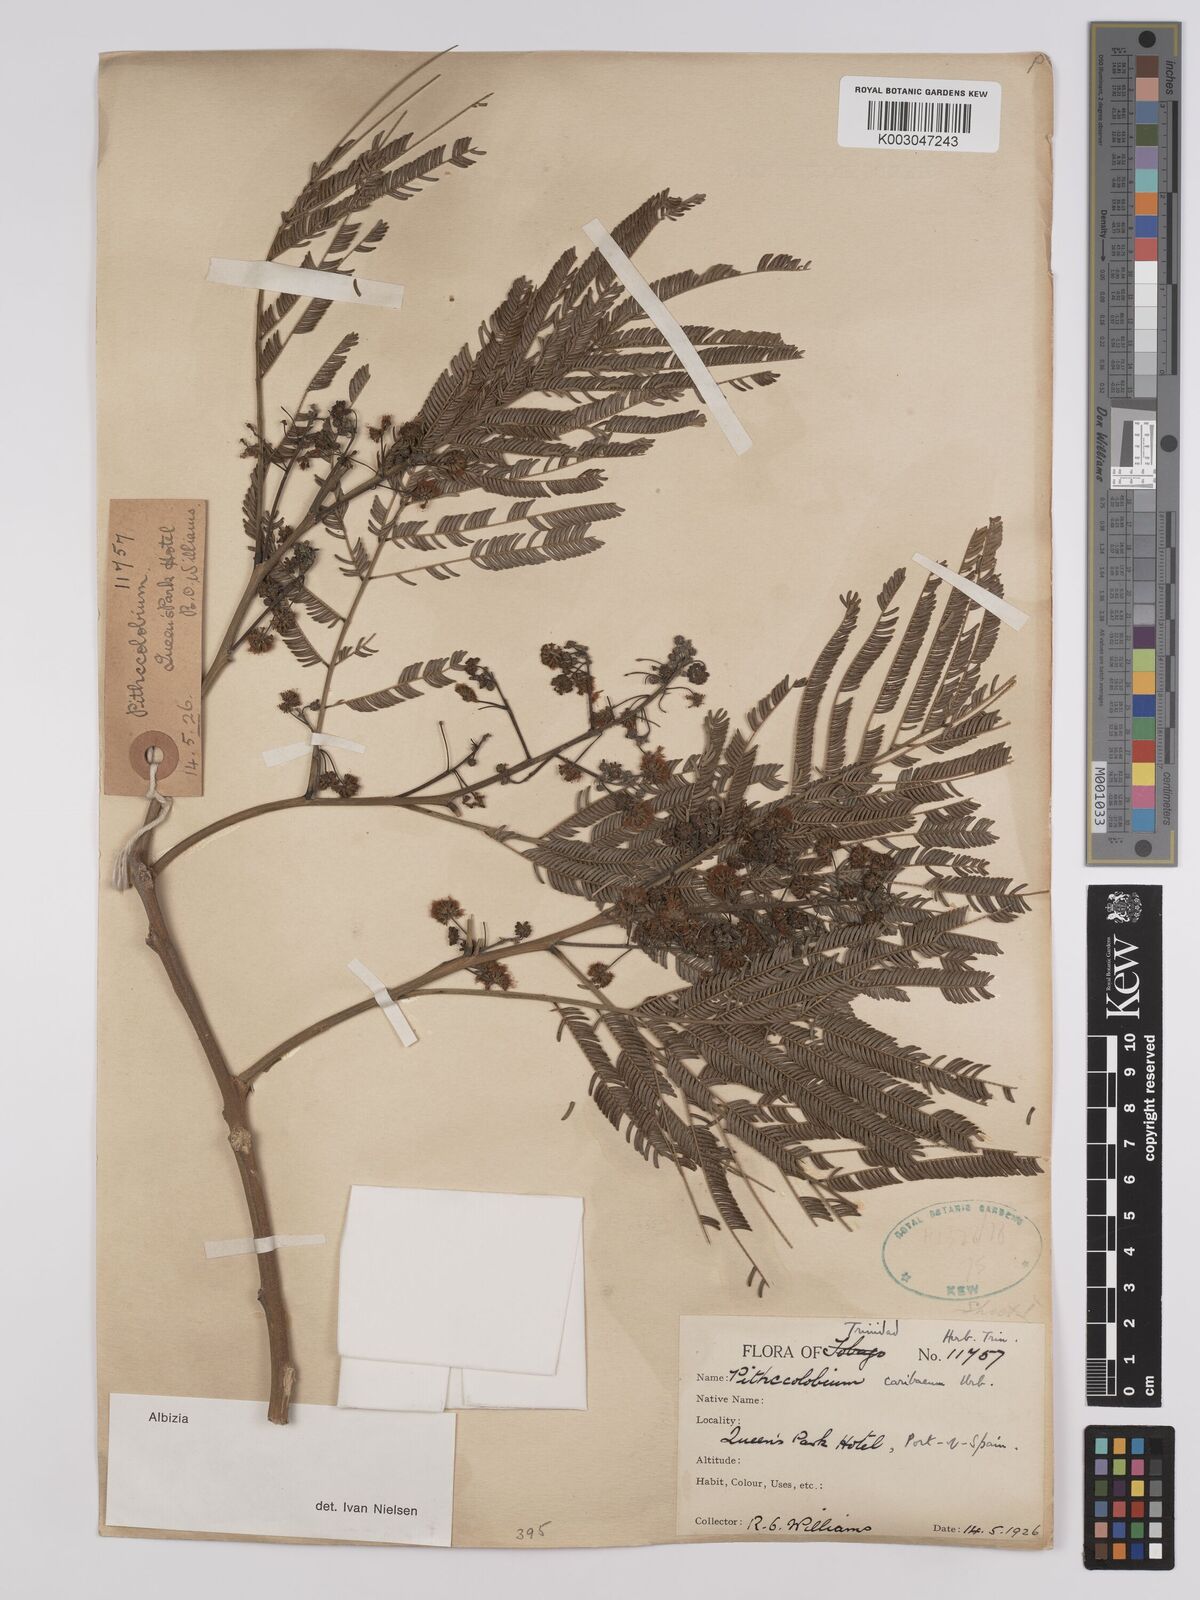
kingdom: Plantae
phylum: Tracheophyta
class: Magnoliopsida
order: Fabales
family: Fabaceae
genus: Albizia
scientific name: Albizia niopoides
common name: Silk tree
